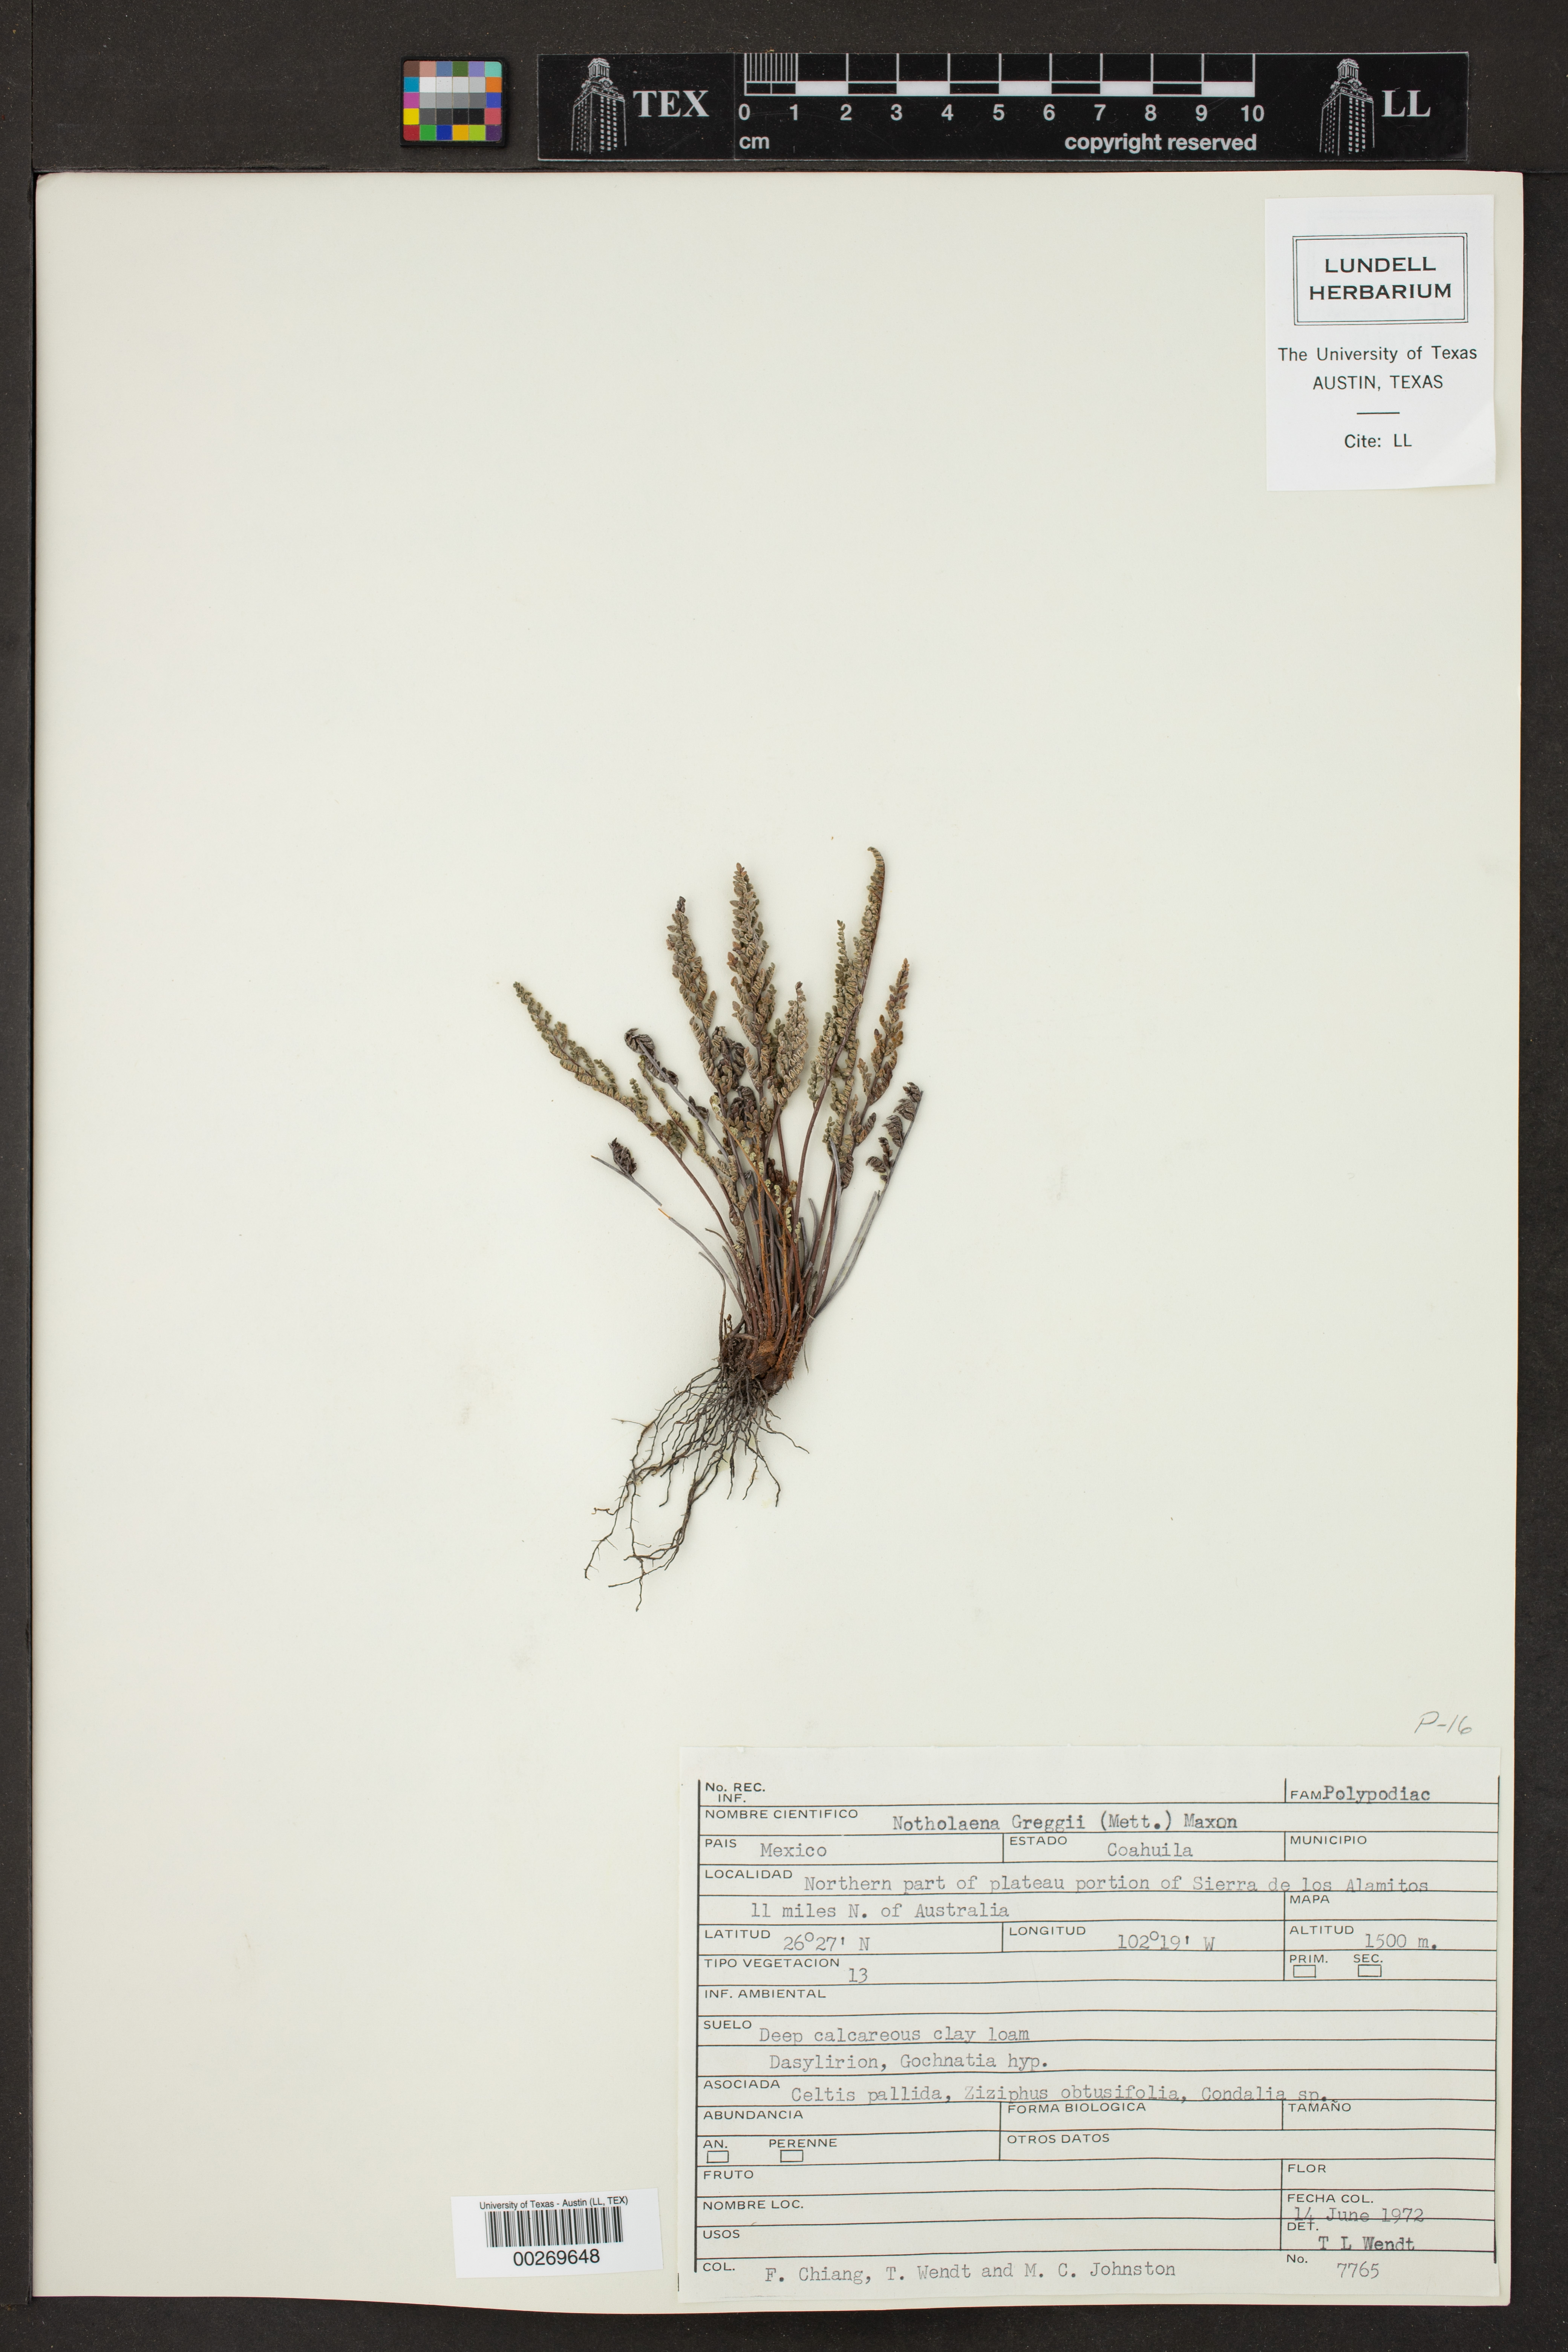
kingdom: Plantae
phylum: Tracheophyta
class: Polypodiopsida
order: Polypodiales
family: Pteridaceae
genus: Notholaena
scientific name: Notholaena greggii
